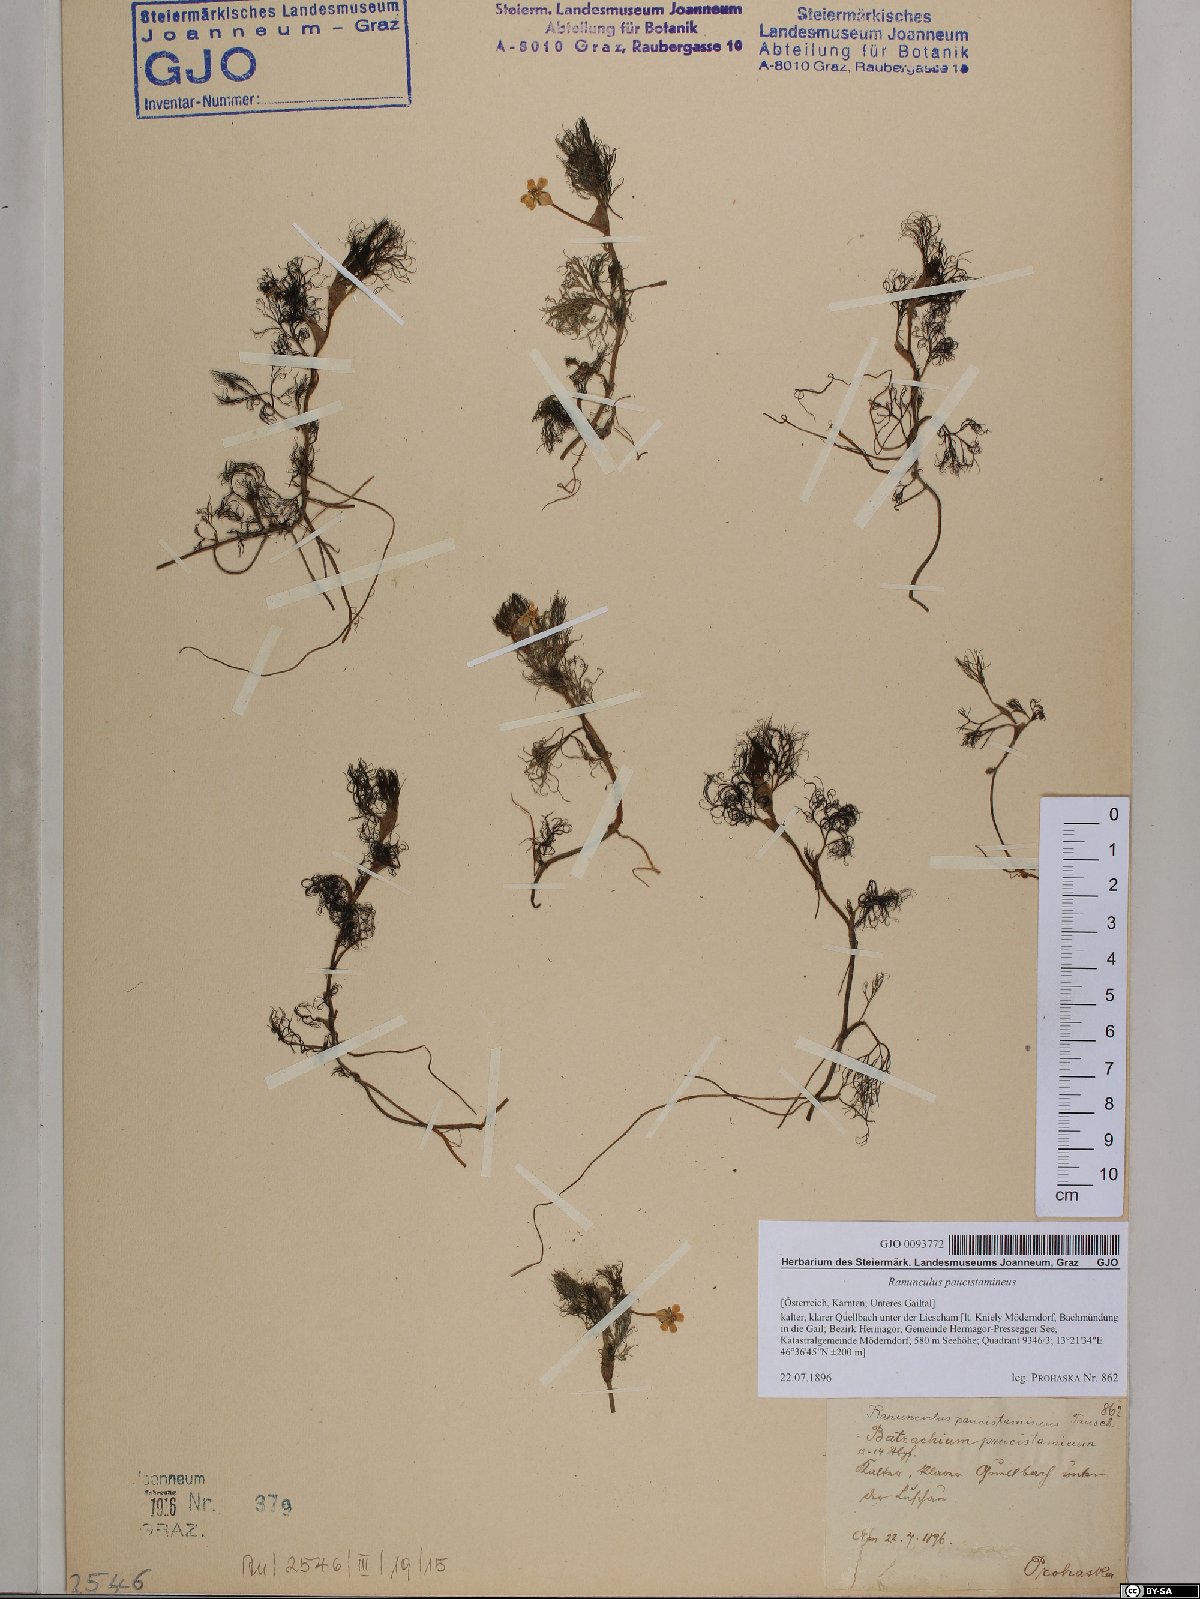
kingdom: Plantae
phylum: Tracheophyta
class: Magnoliopsida
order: Ranunculales
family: Ranunculaceae
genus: Ranunculus
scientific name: Ranunculus
